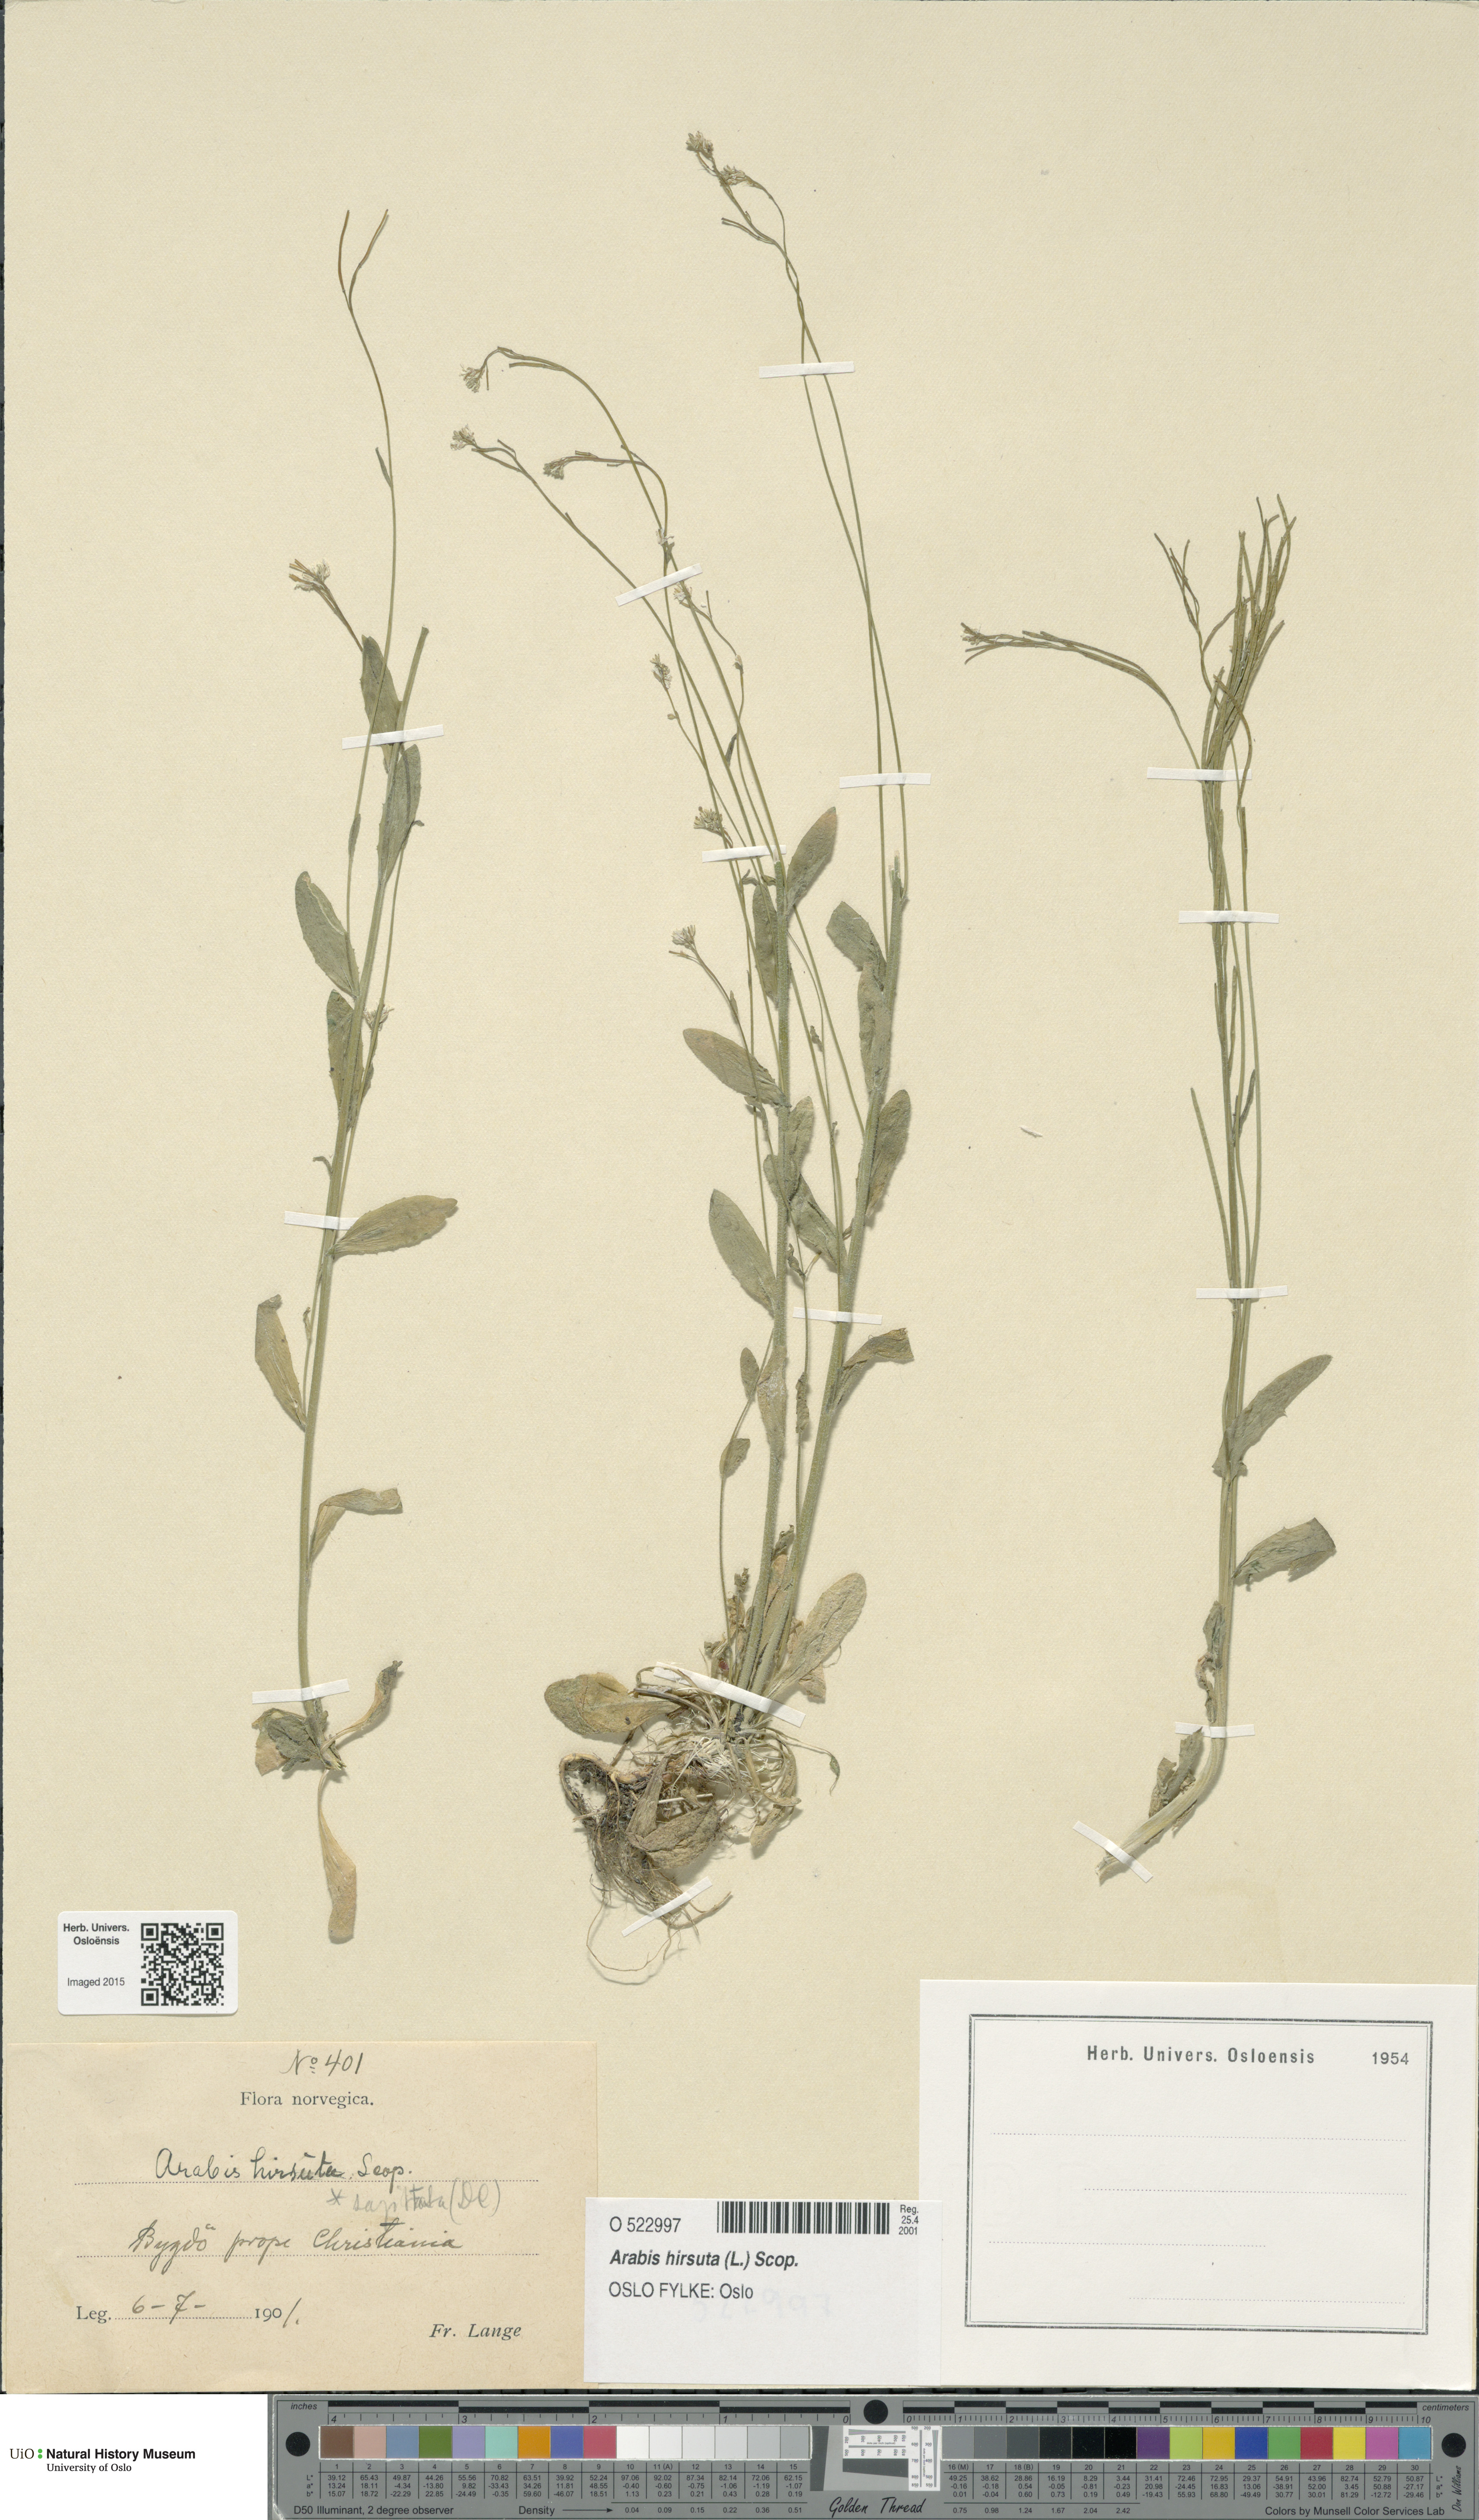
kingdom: Plantae
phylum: Tracheophyta
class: Magnoliopsida
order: Brassicales
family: Brassicaceae
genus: Arabis
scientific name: Arabis hirsuta
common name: Hairy rock-cress
